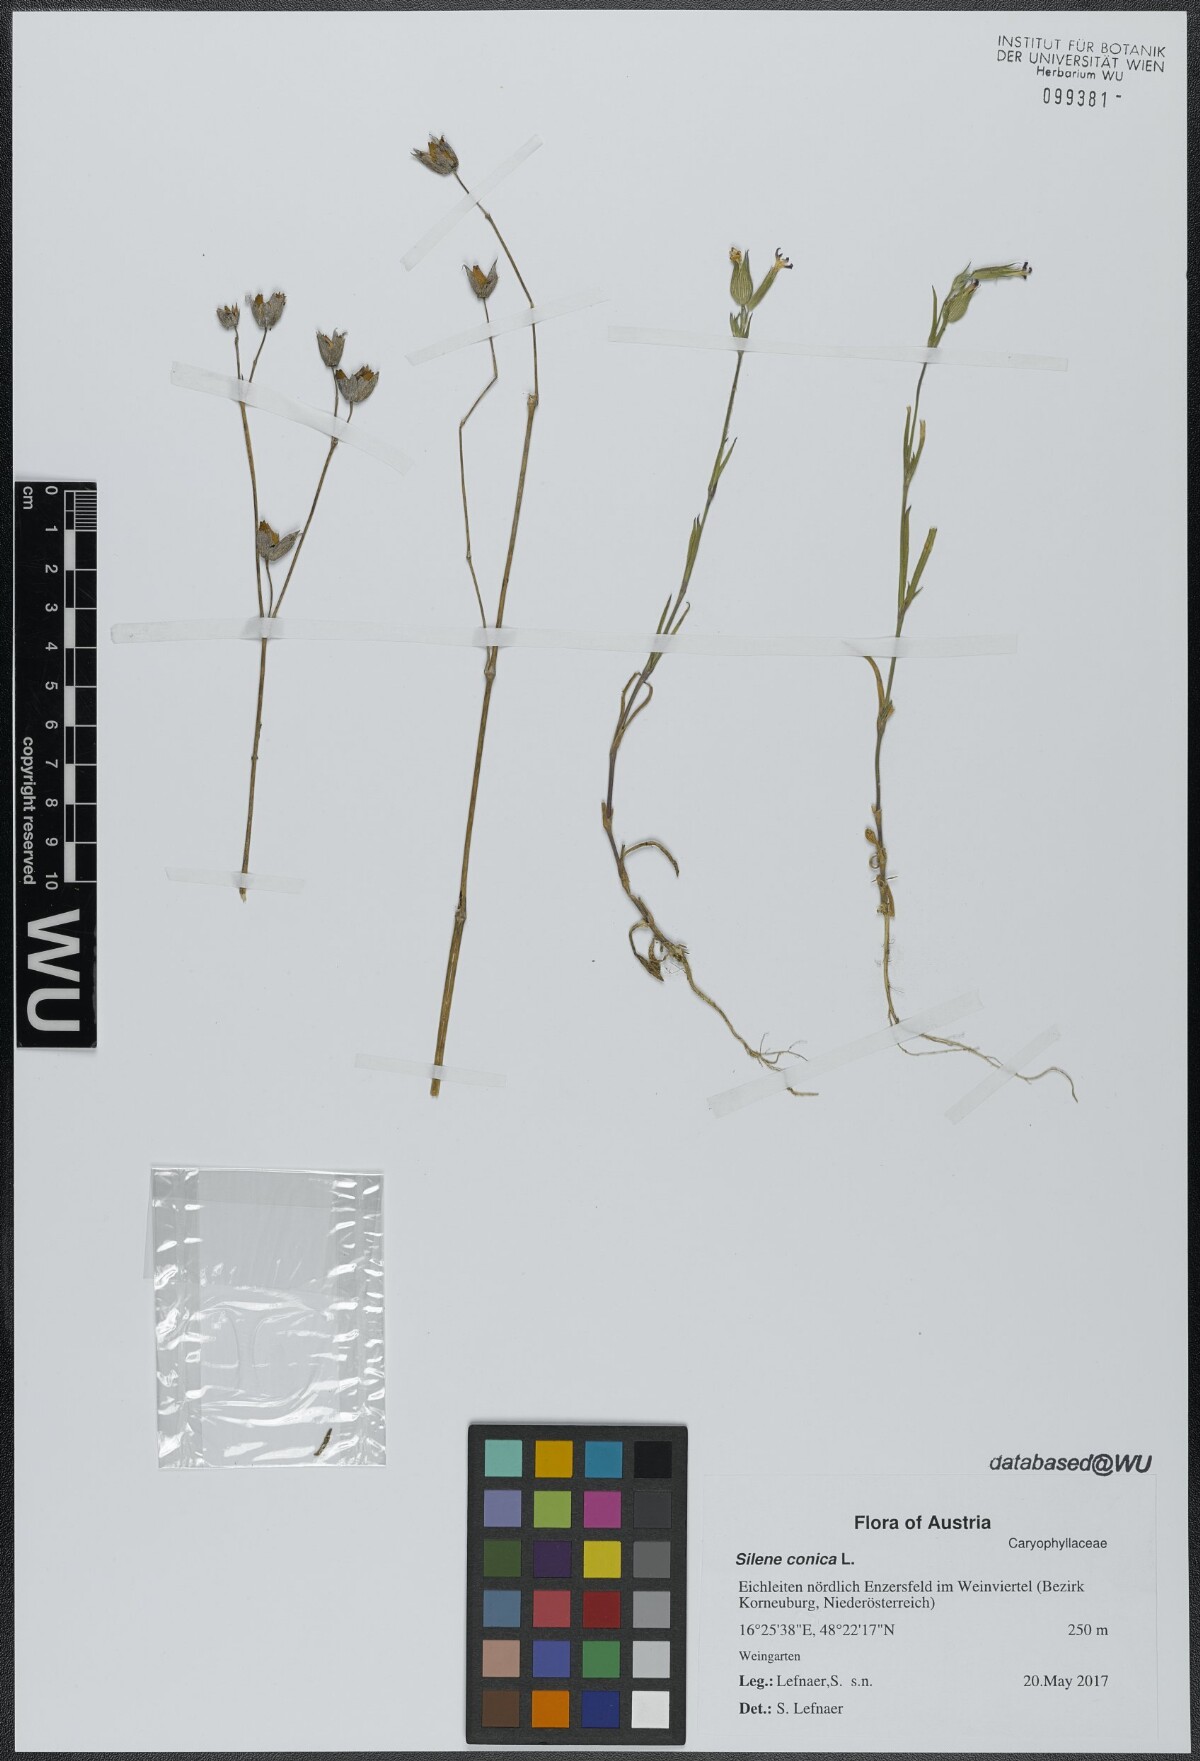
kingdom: Plantae
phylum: Tracheophyta
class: Magnoliopsida
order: Caryophyllales
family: Caryophyllaceae
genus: Silene
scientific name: Silene conica
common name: Sand catchfly
